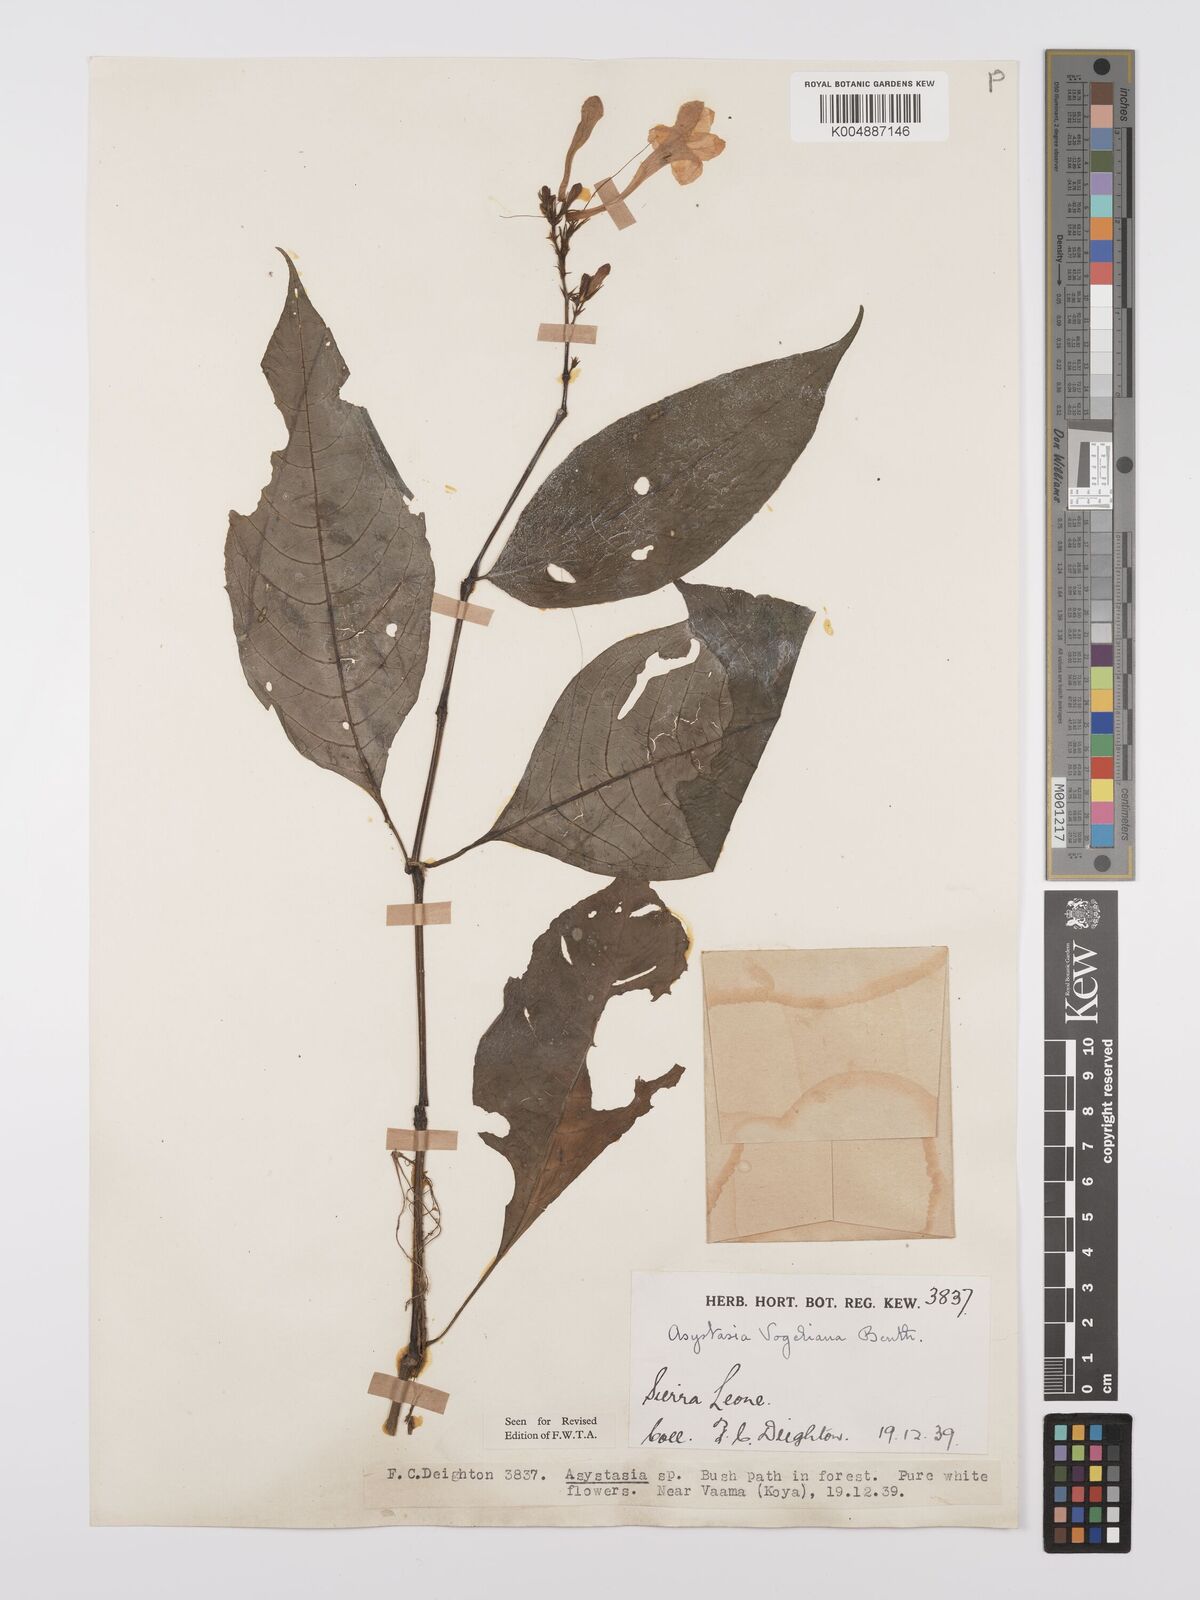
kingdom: Plantae
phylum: Tracheophyta
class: Magnoliopsida
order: Lamiales
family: Acanthaceae
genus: Asystasia
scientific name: Asystasia vogeliana
